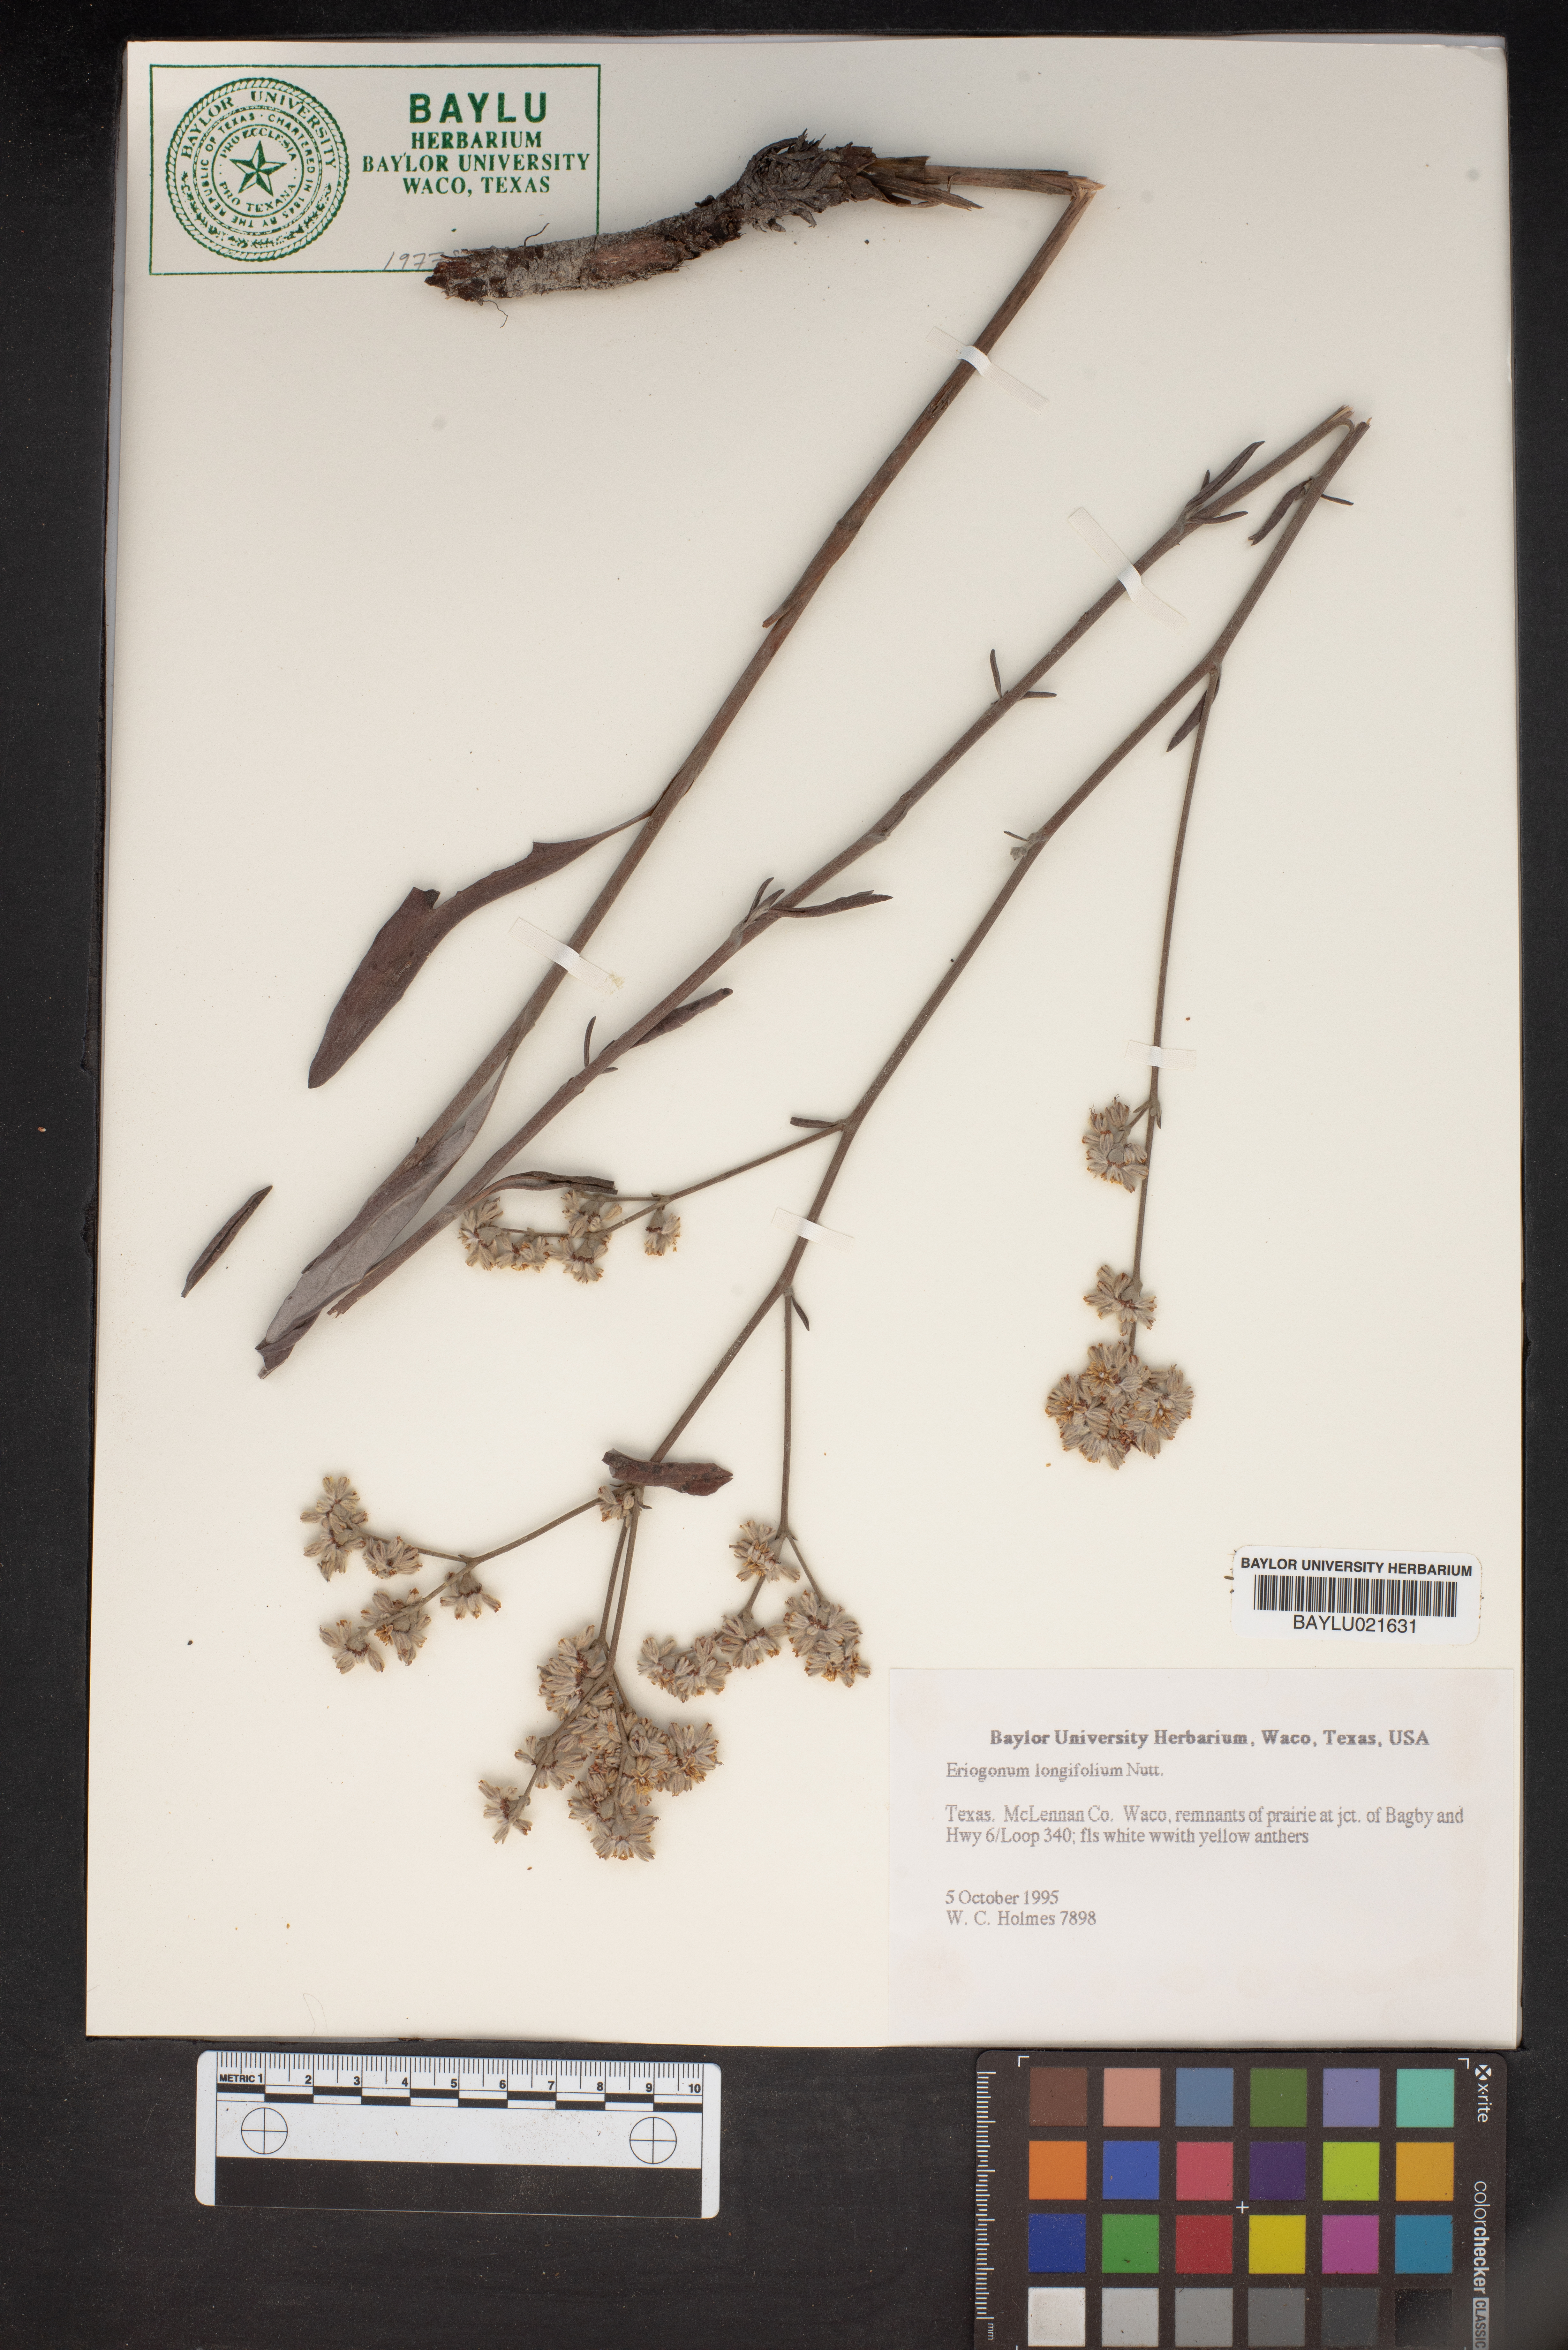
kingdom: Plantae
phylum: Tracheophyta
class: Magnoliopsida
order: Caryophyllales
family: Polygonaceae
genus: Eriogonum
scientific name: Eriogonum longifolium
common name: Longleaf wild buckwheat
